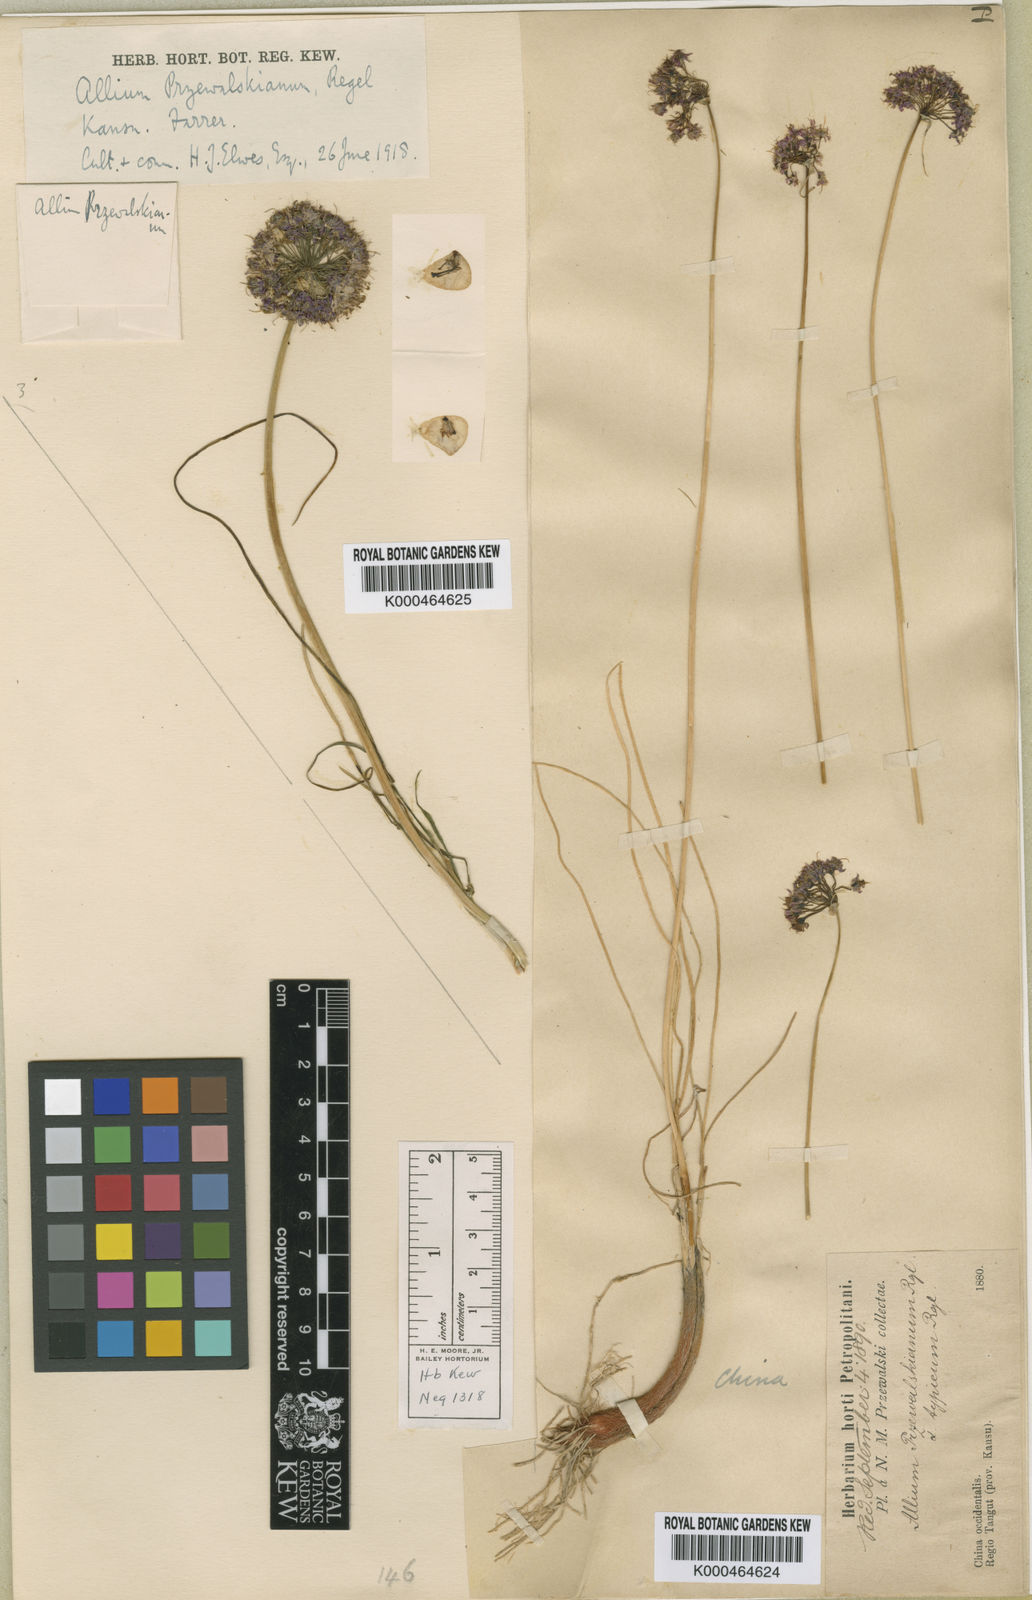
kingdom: Plantae
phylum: Tracheophyta
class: Liliopsida
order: Asparagales
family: Amaryllidaceae
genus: Allium
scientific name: Allium przewalskianum
